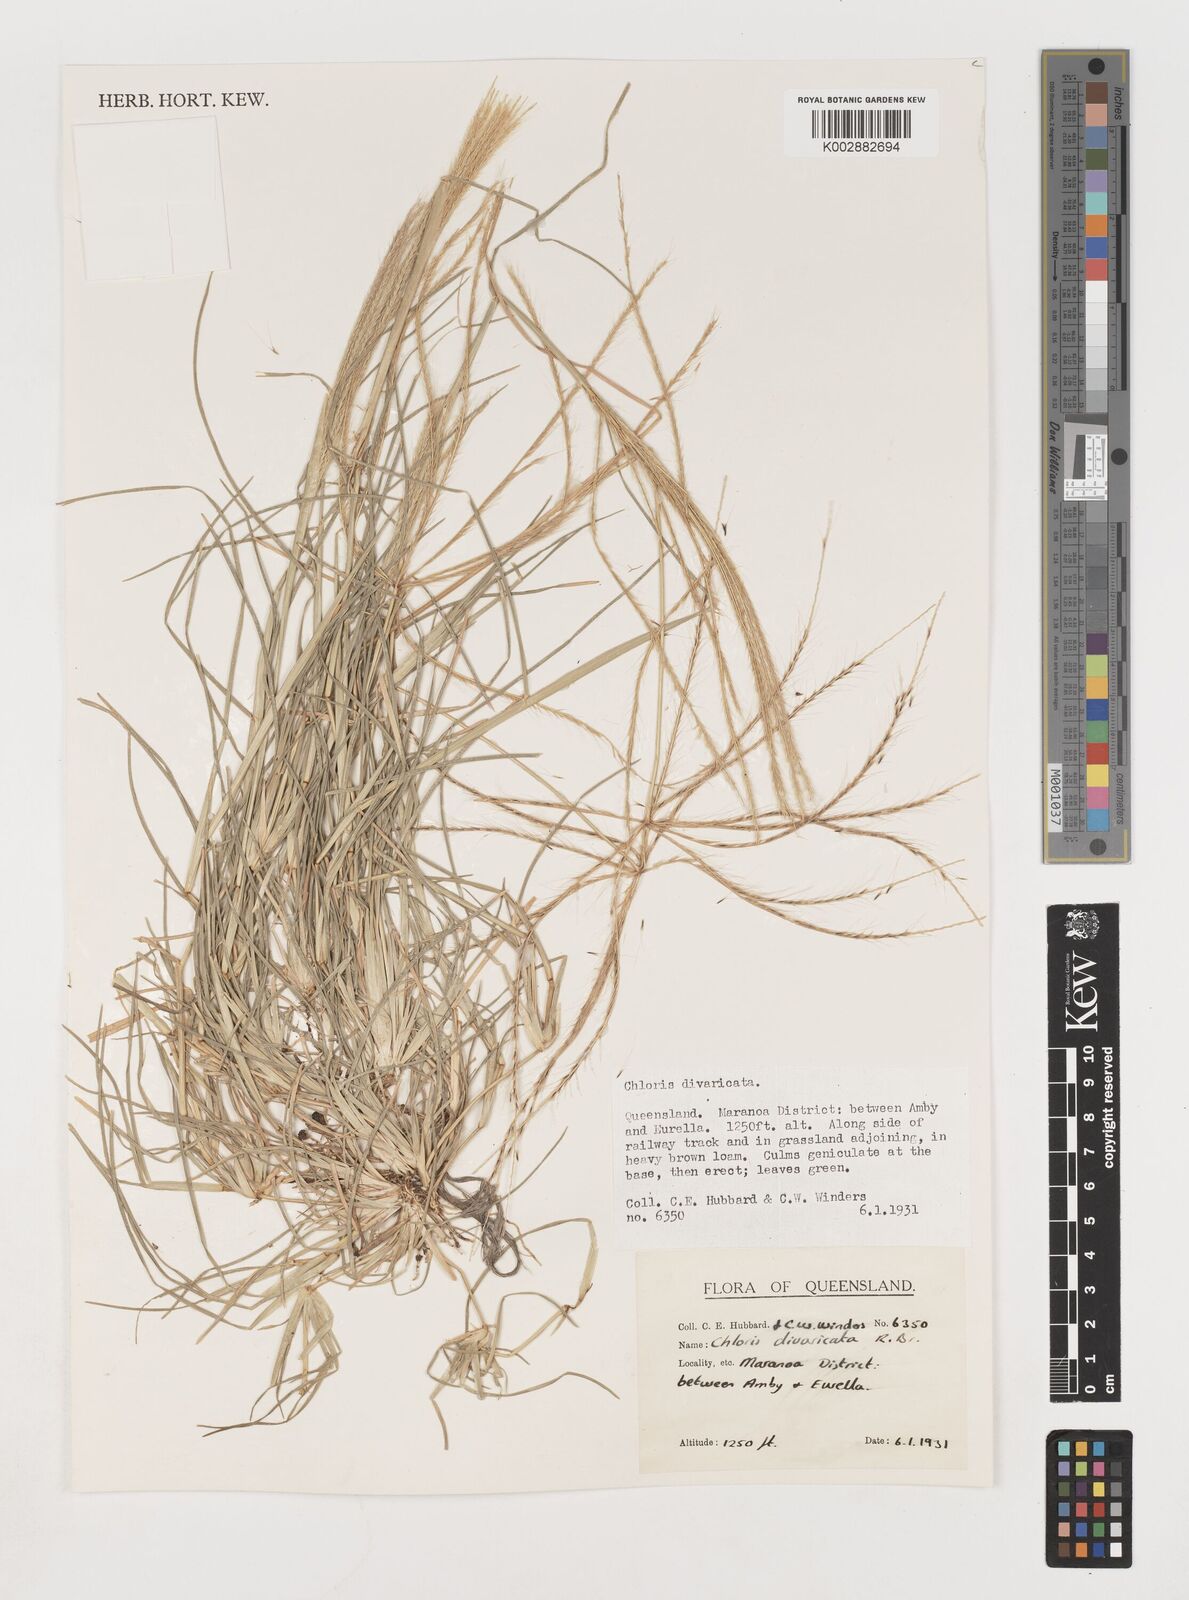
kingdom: Plantae
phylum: Tracheophyta
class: Liliopsida
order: Poales
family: Poaceae
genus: Chloris
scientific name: Chloris divaricata
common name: Spreading windmill grass
